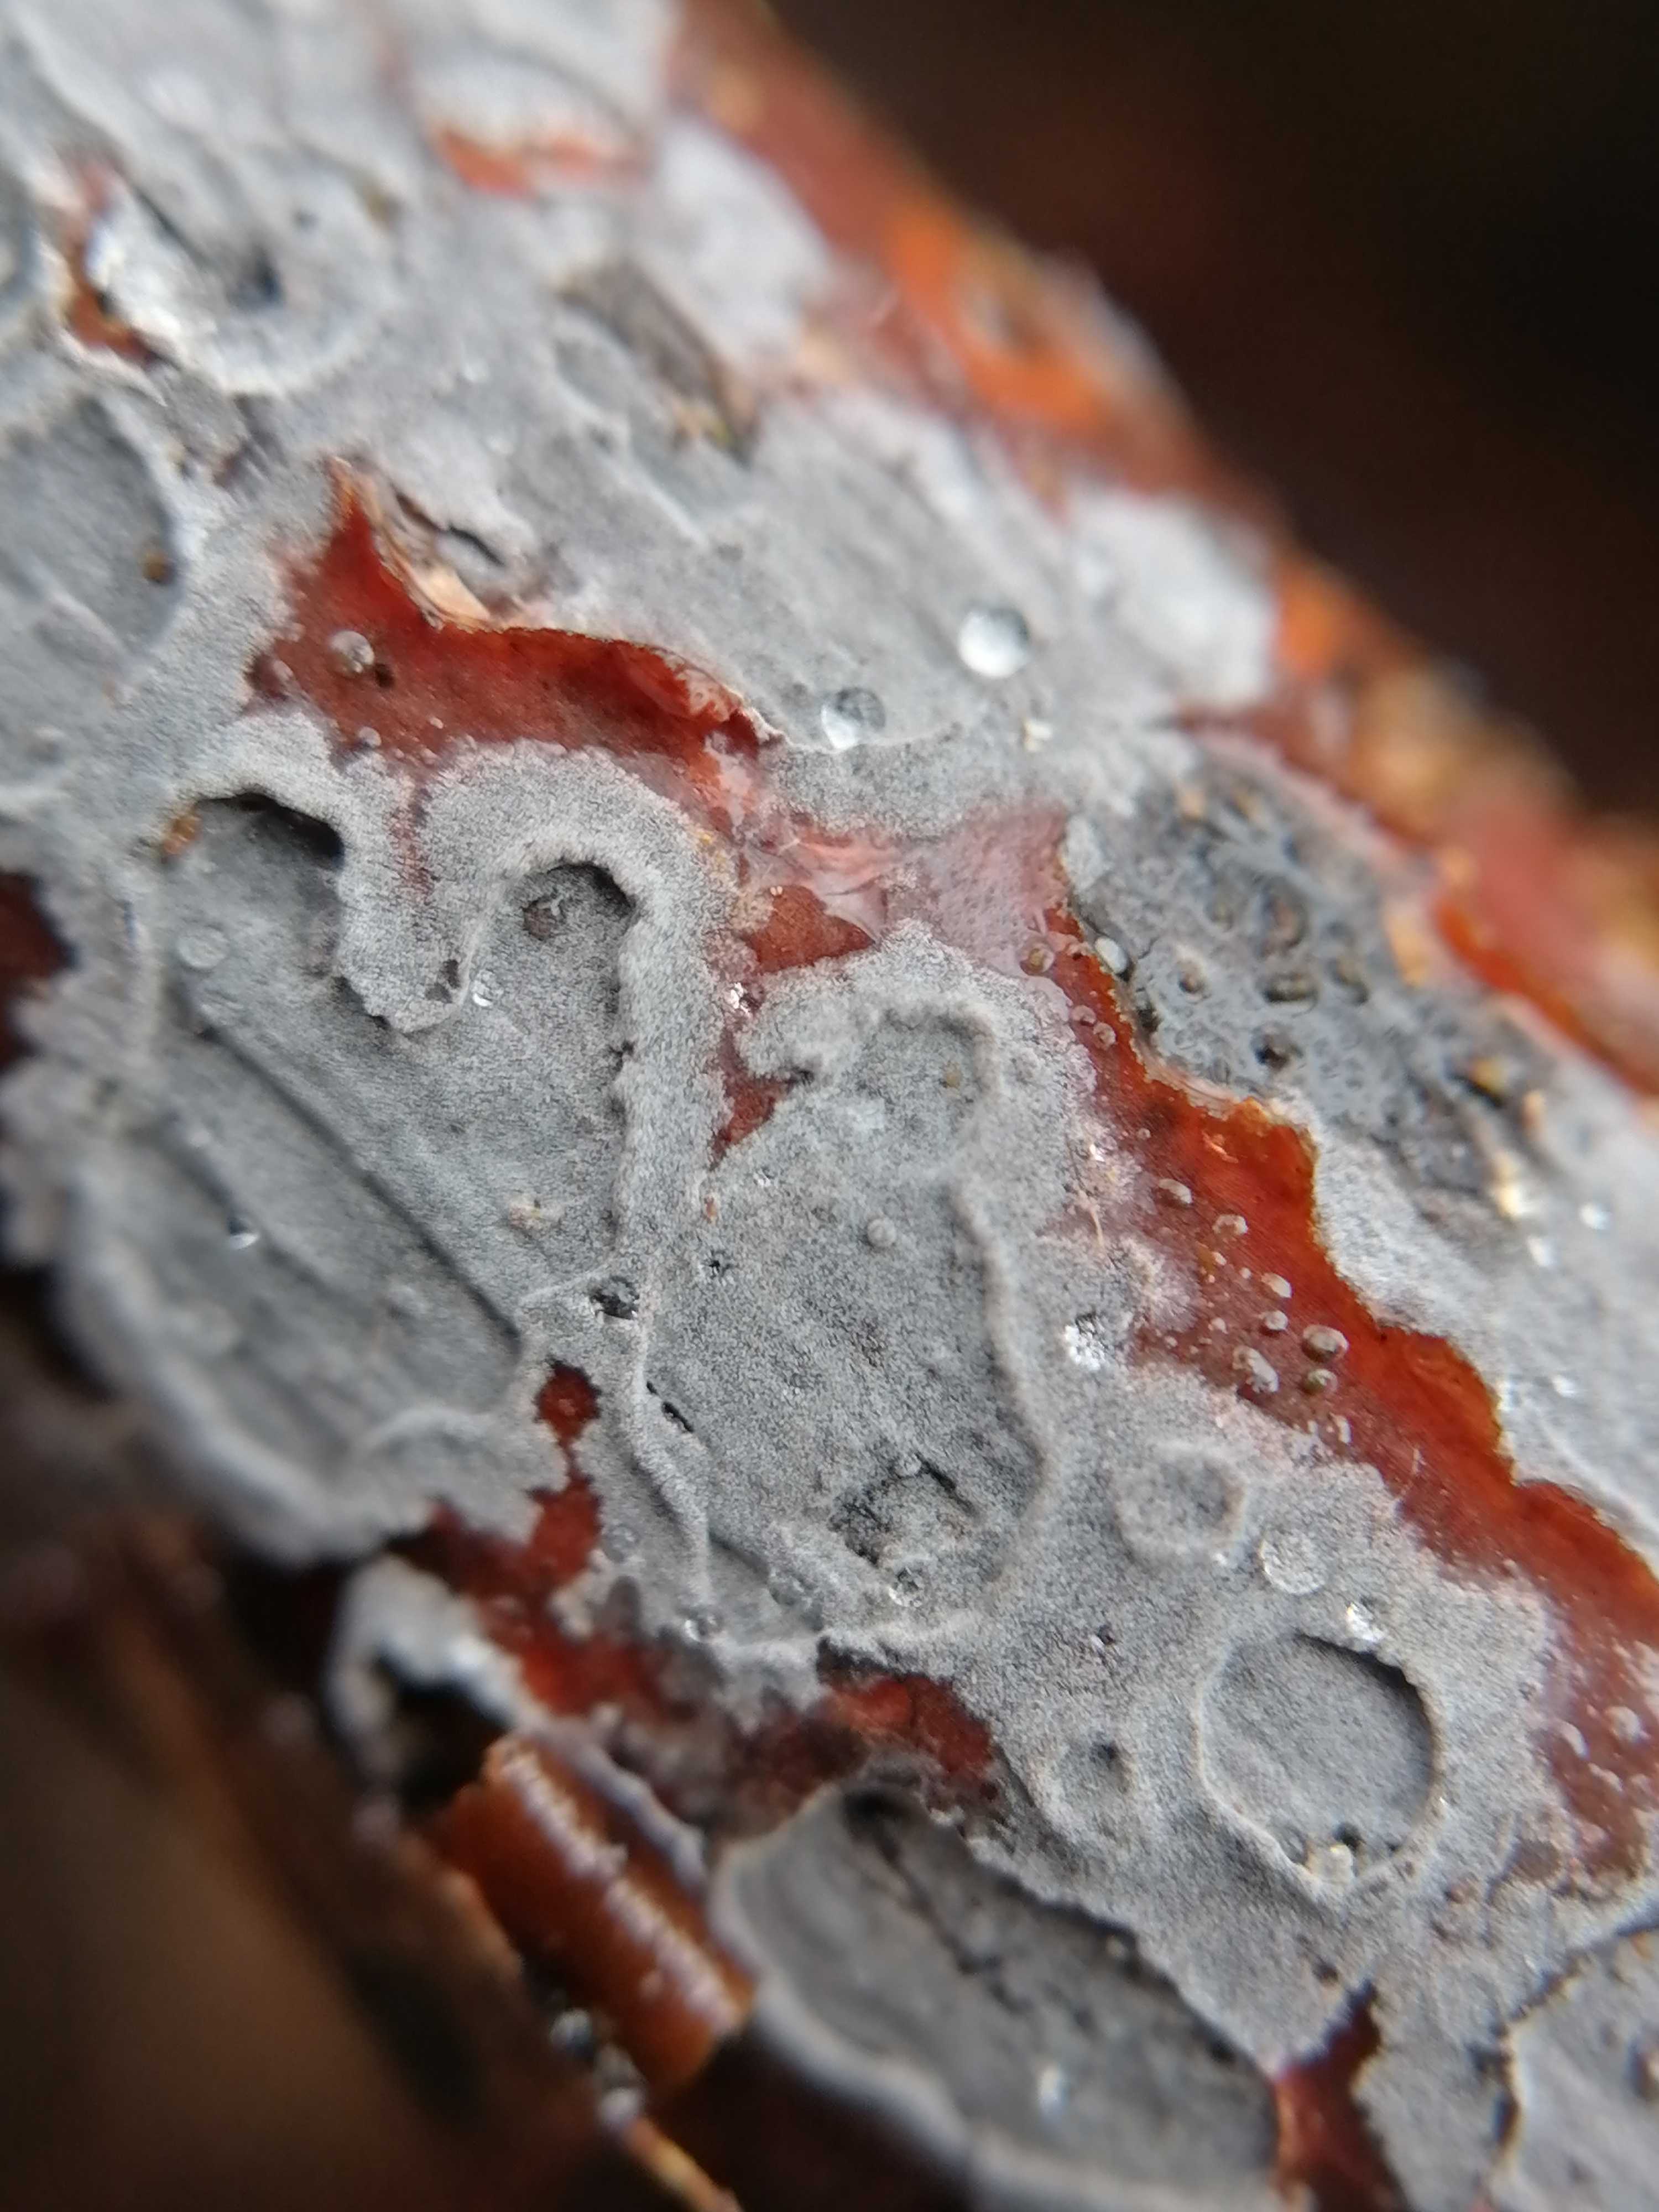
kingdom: Fungi
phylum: Basidiomycota
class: Agaricomycetes
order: Corticiales
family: Corticiaceae
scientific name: Corticiaceae
